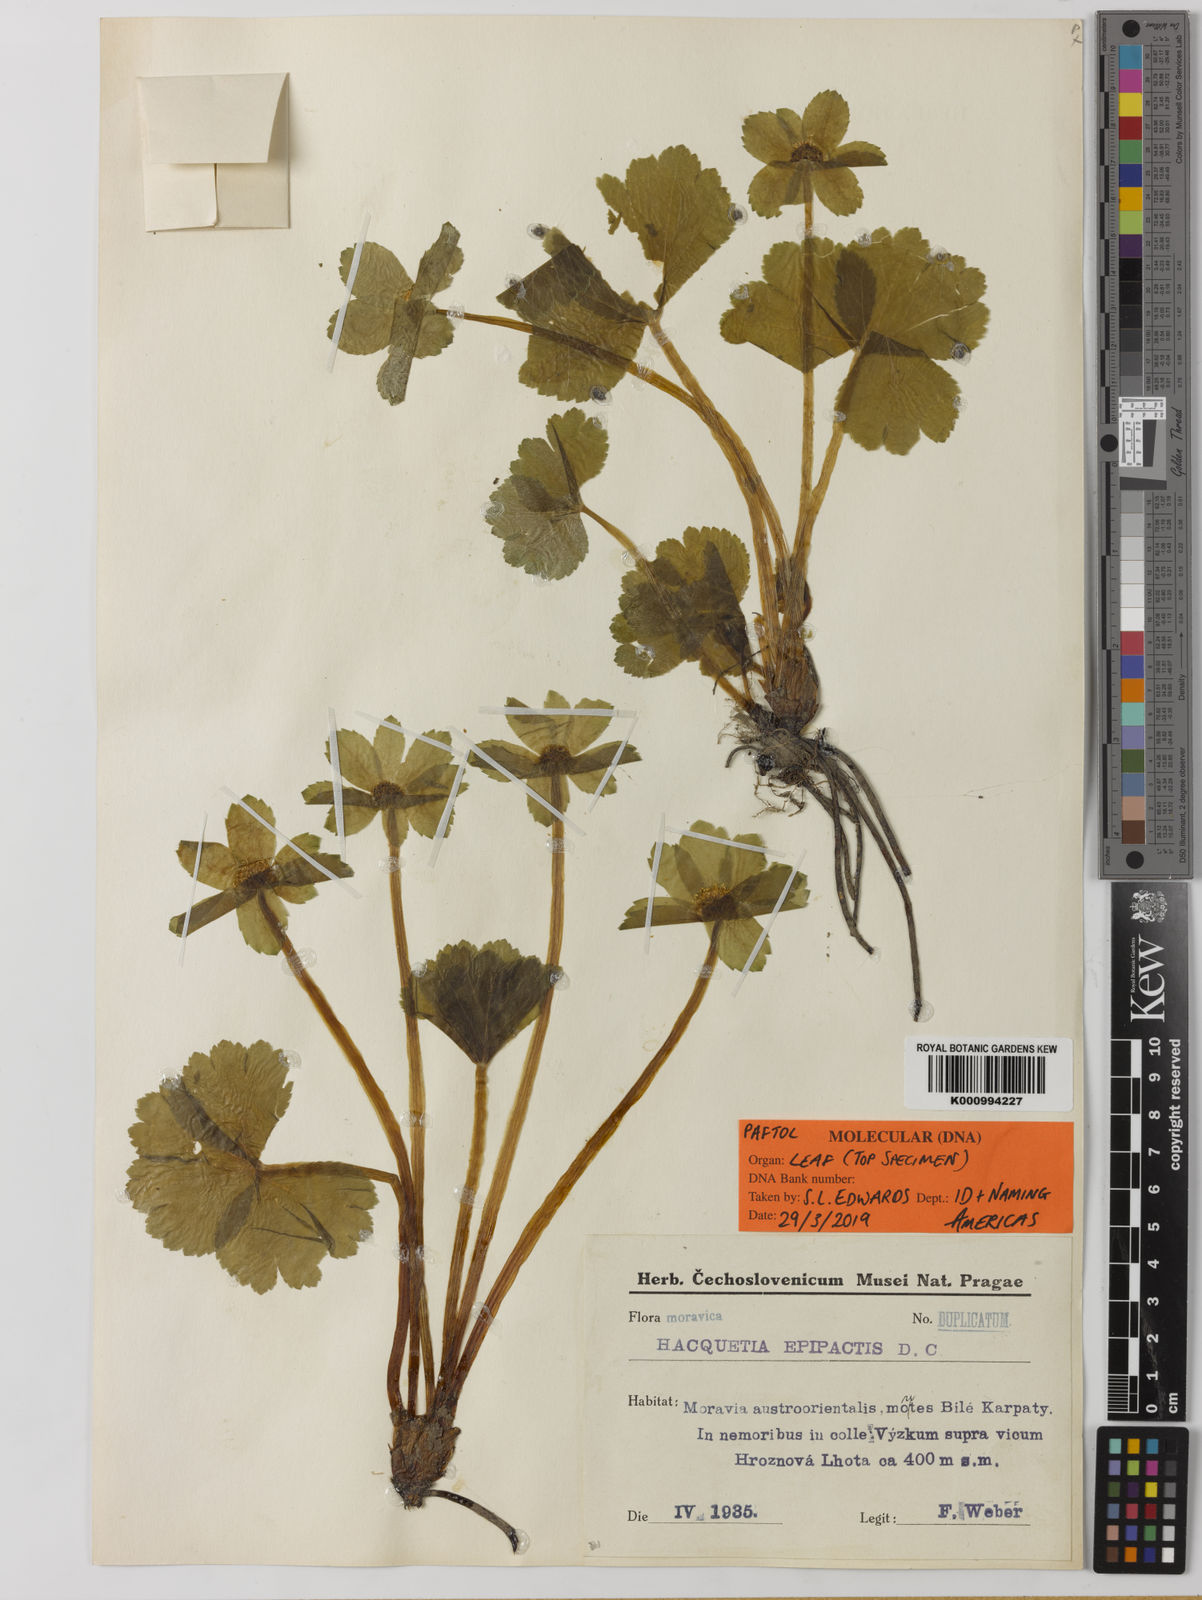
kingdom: Plantae
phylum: Tracheophyta
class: Magnoliopsida
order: Apiales
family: Apiaceae
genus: Sanicula
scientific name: Sanicula epipactis
